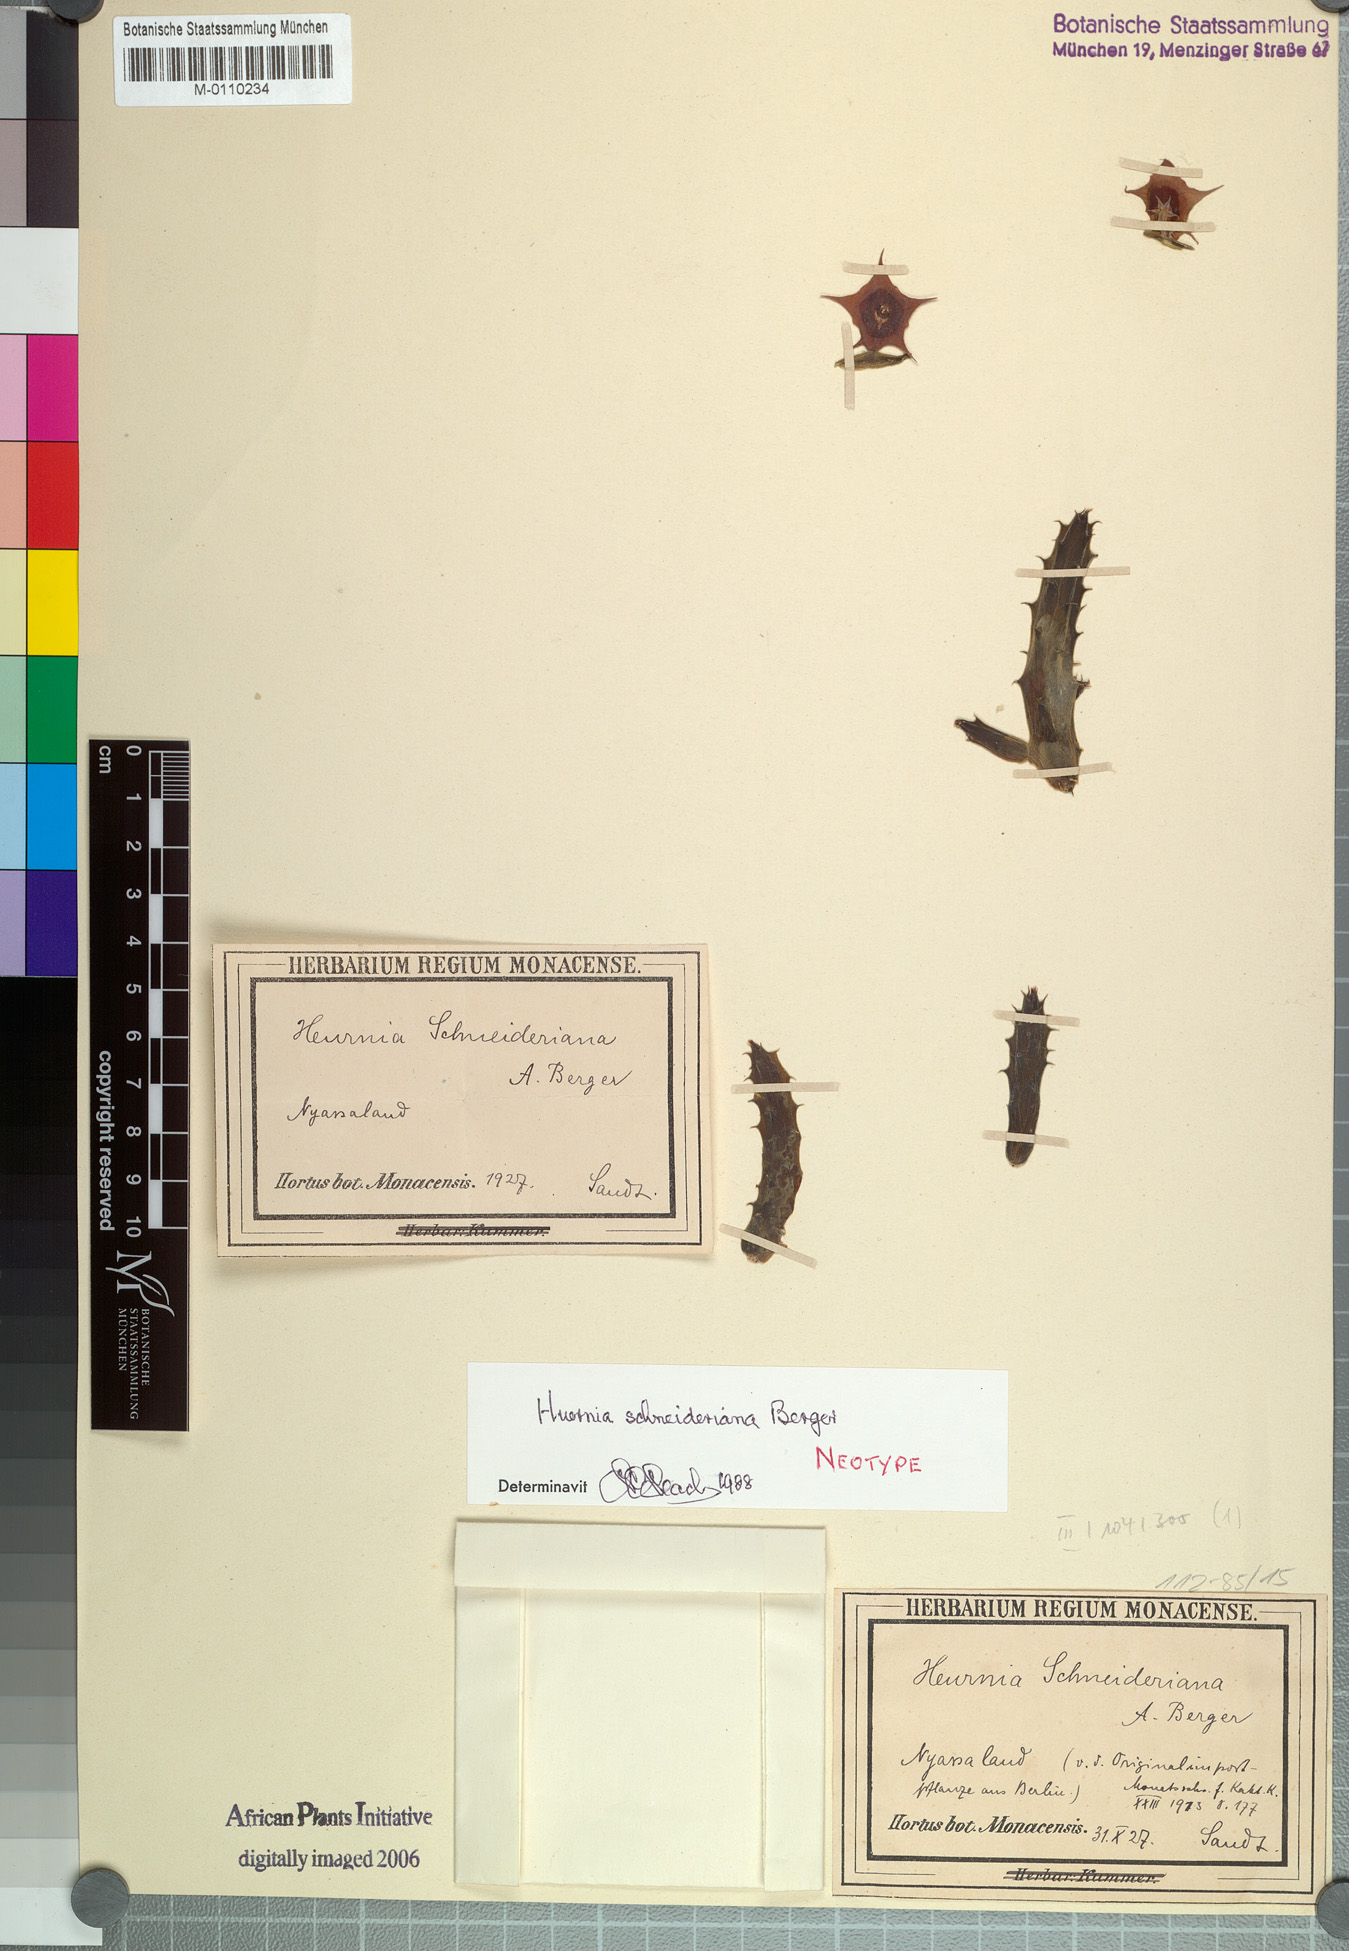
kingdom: Plantae
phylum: Tracheophyta
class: Magnoliopsida
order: Gentianales
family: Apocynaceae
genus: Huernia
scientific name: Huernia schneideriana
